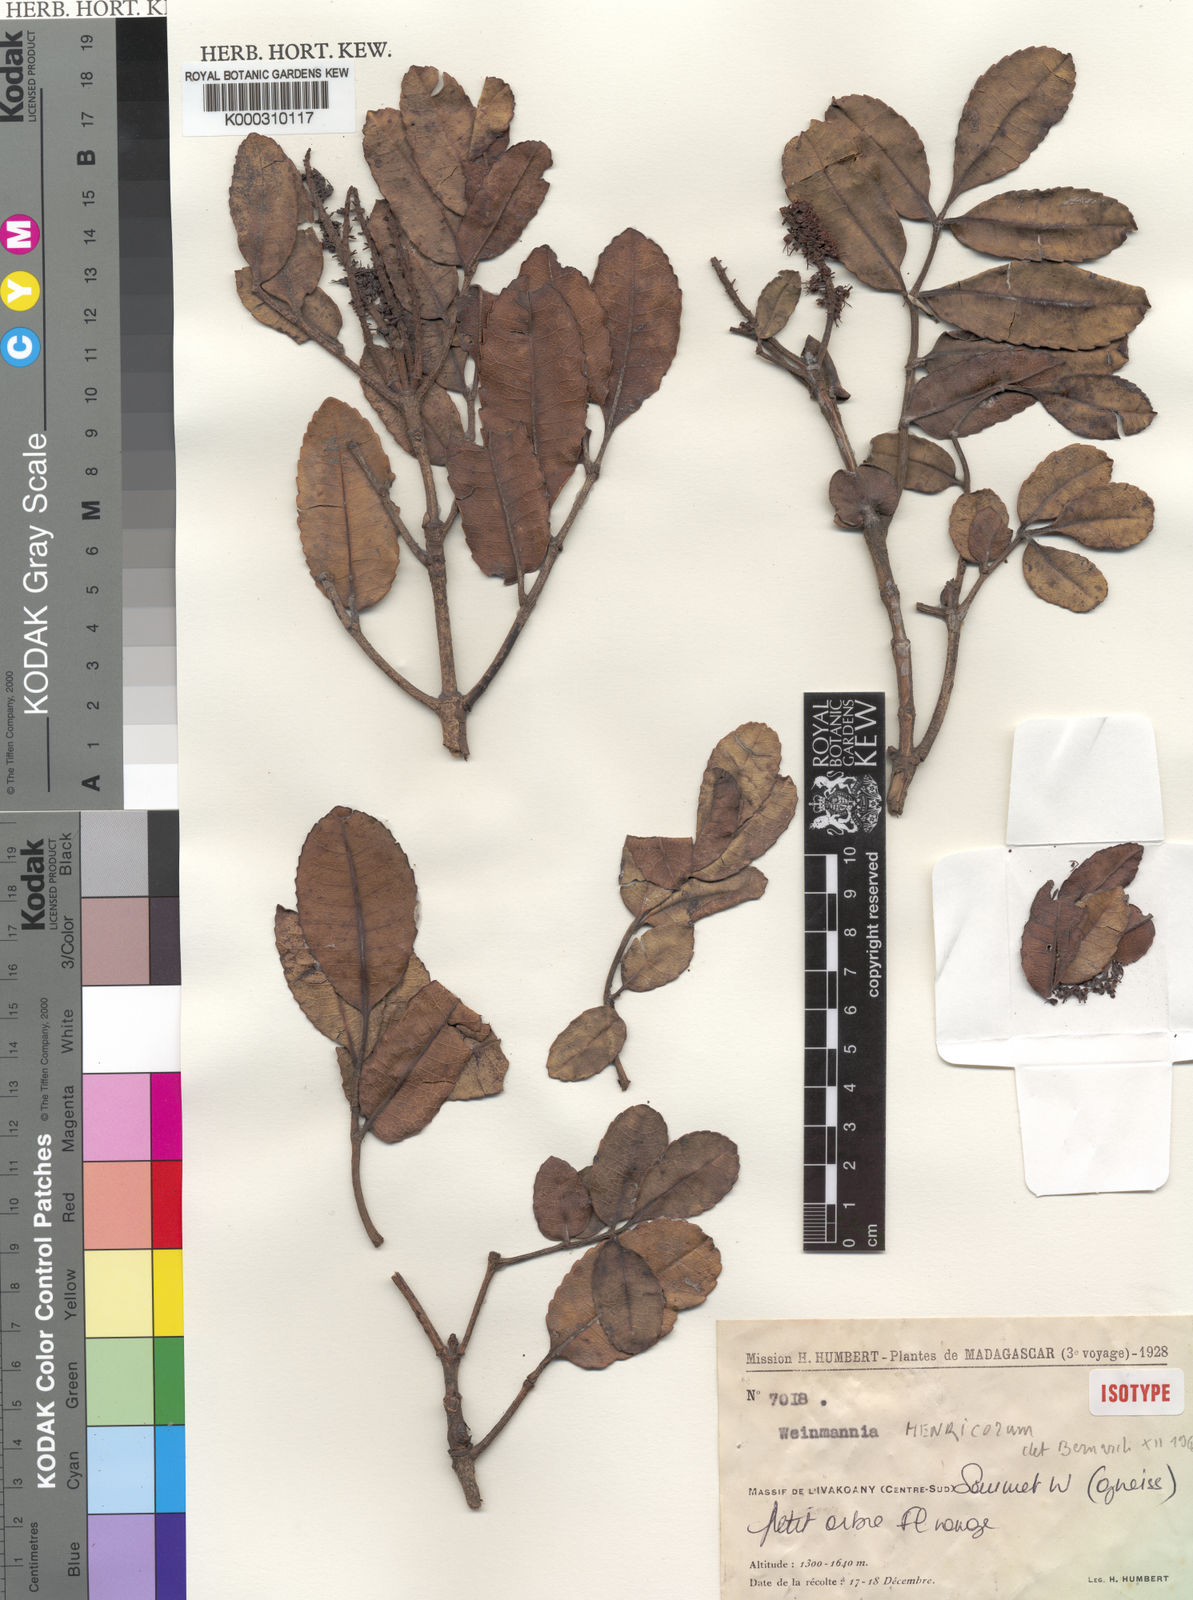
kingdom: Plantae
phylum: Tracheophyta
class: Magnoliopsida
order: Oxalidales
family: Cunoniaceae
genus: Pterophylla
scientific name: Pterophylla henricorum
